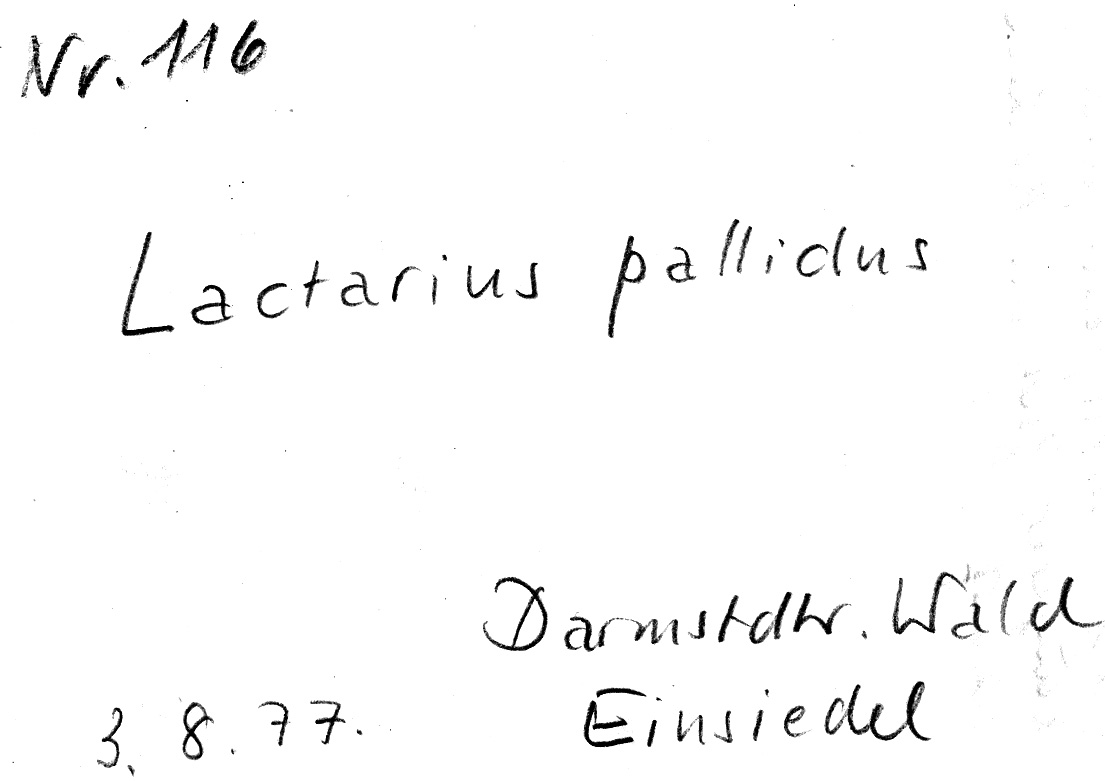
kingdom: Fungi
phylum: Basidiomycota
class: Agaricomycetes
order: Russulales
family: Russulaceae
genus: Lactarius
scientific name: Lactarius pallidus
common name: Pale milkcap
